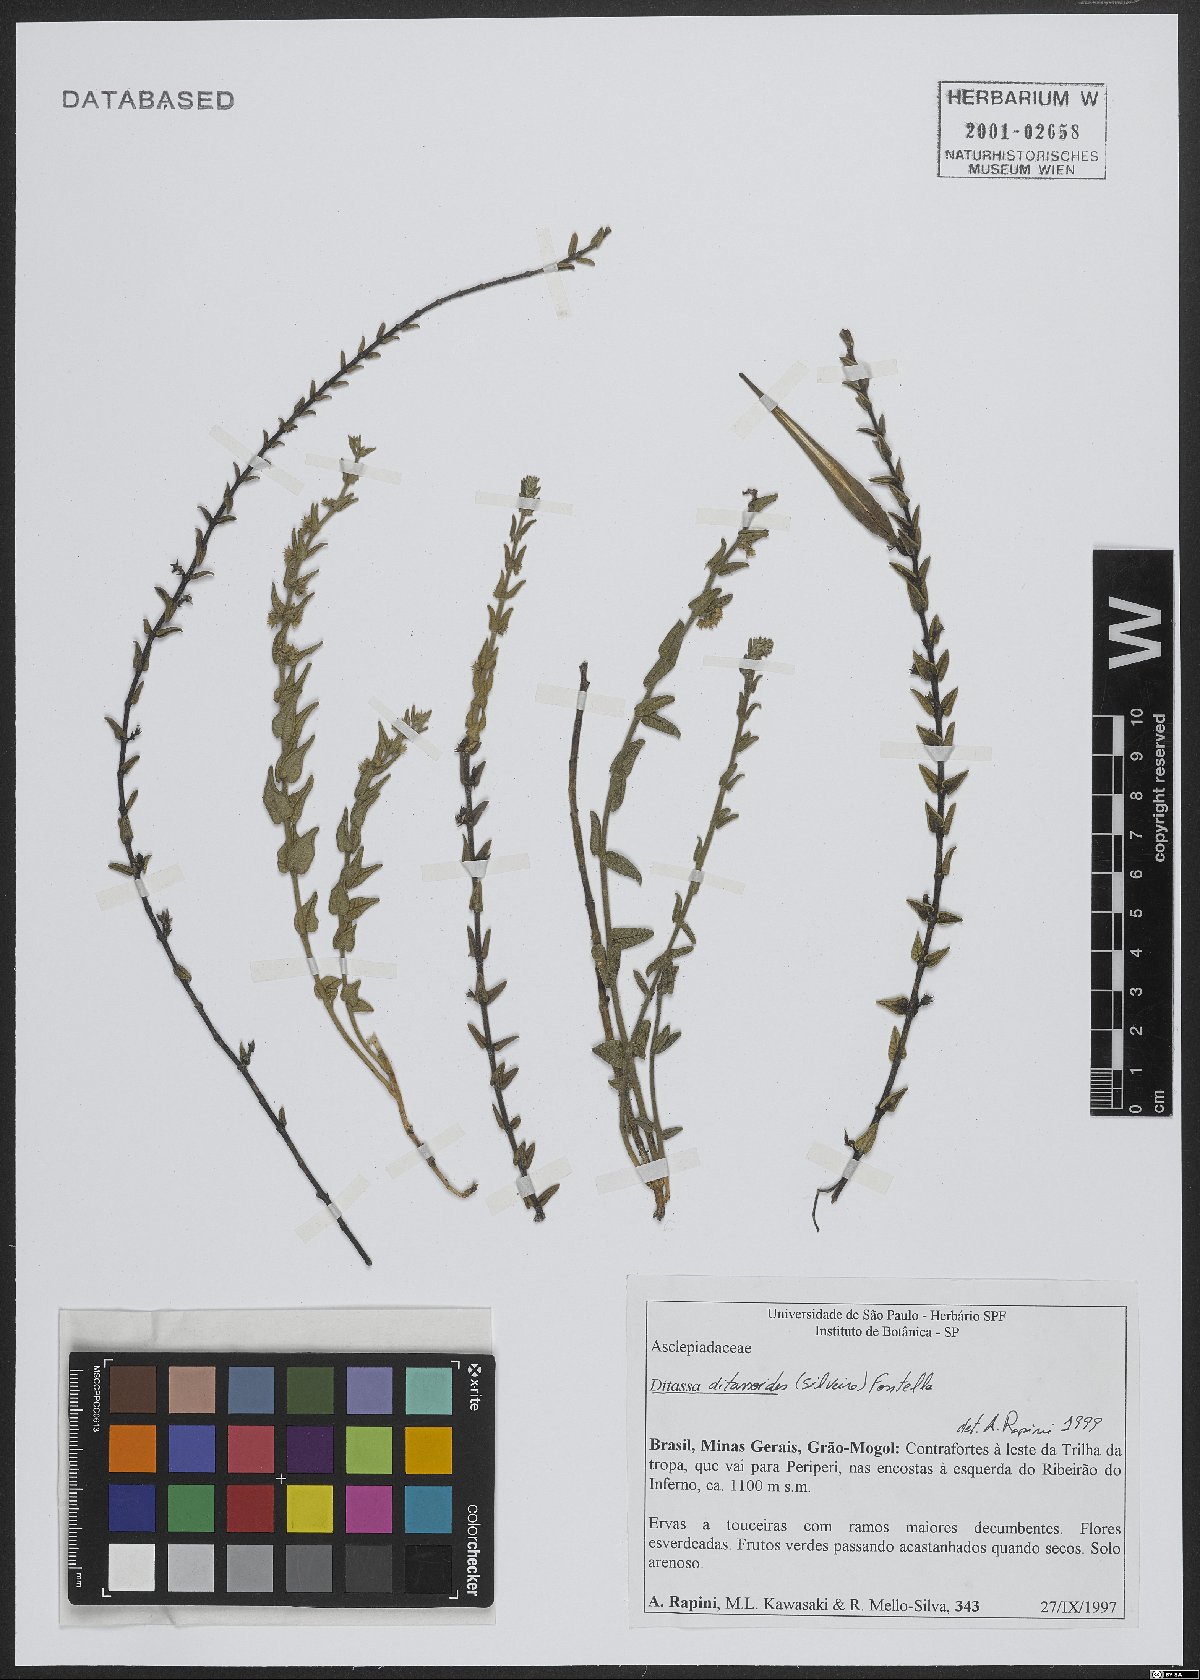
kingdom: Plantae
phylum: Tracheophyta
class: Magnoliopsida
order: Gentianales
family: Apocynaceae
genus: Minaria
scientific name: Minaria ditassoides
